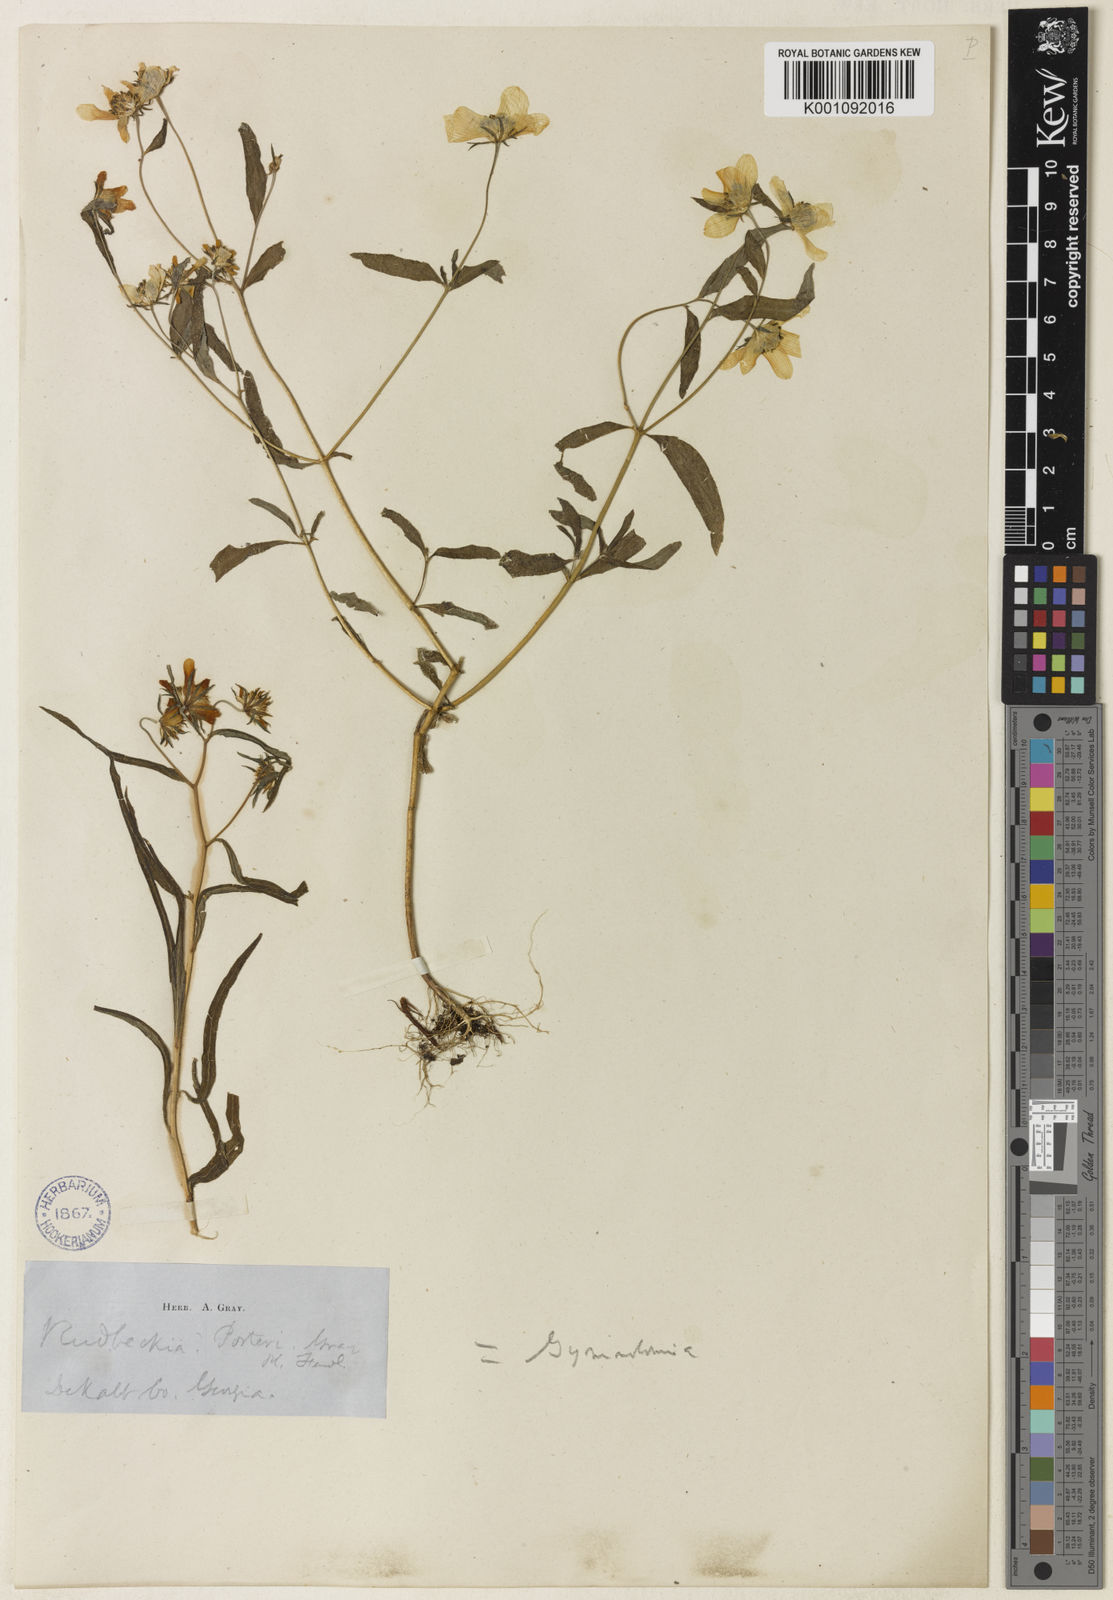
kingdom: Plantae
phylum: Tracheophyta
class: Magnoliopsida
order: Asterales
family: Asteraceae
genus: Helianthus
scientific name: Helianthus porteri
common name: Porter's sunflower
